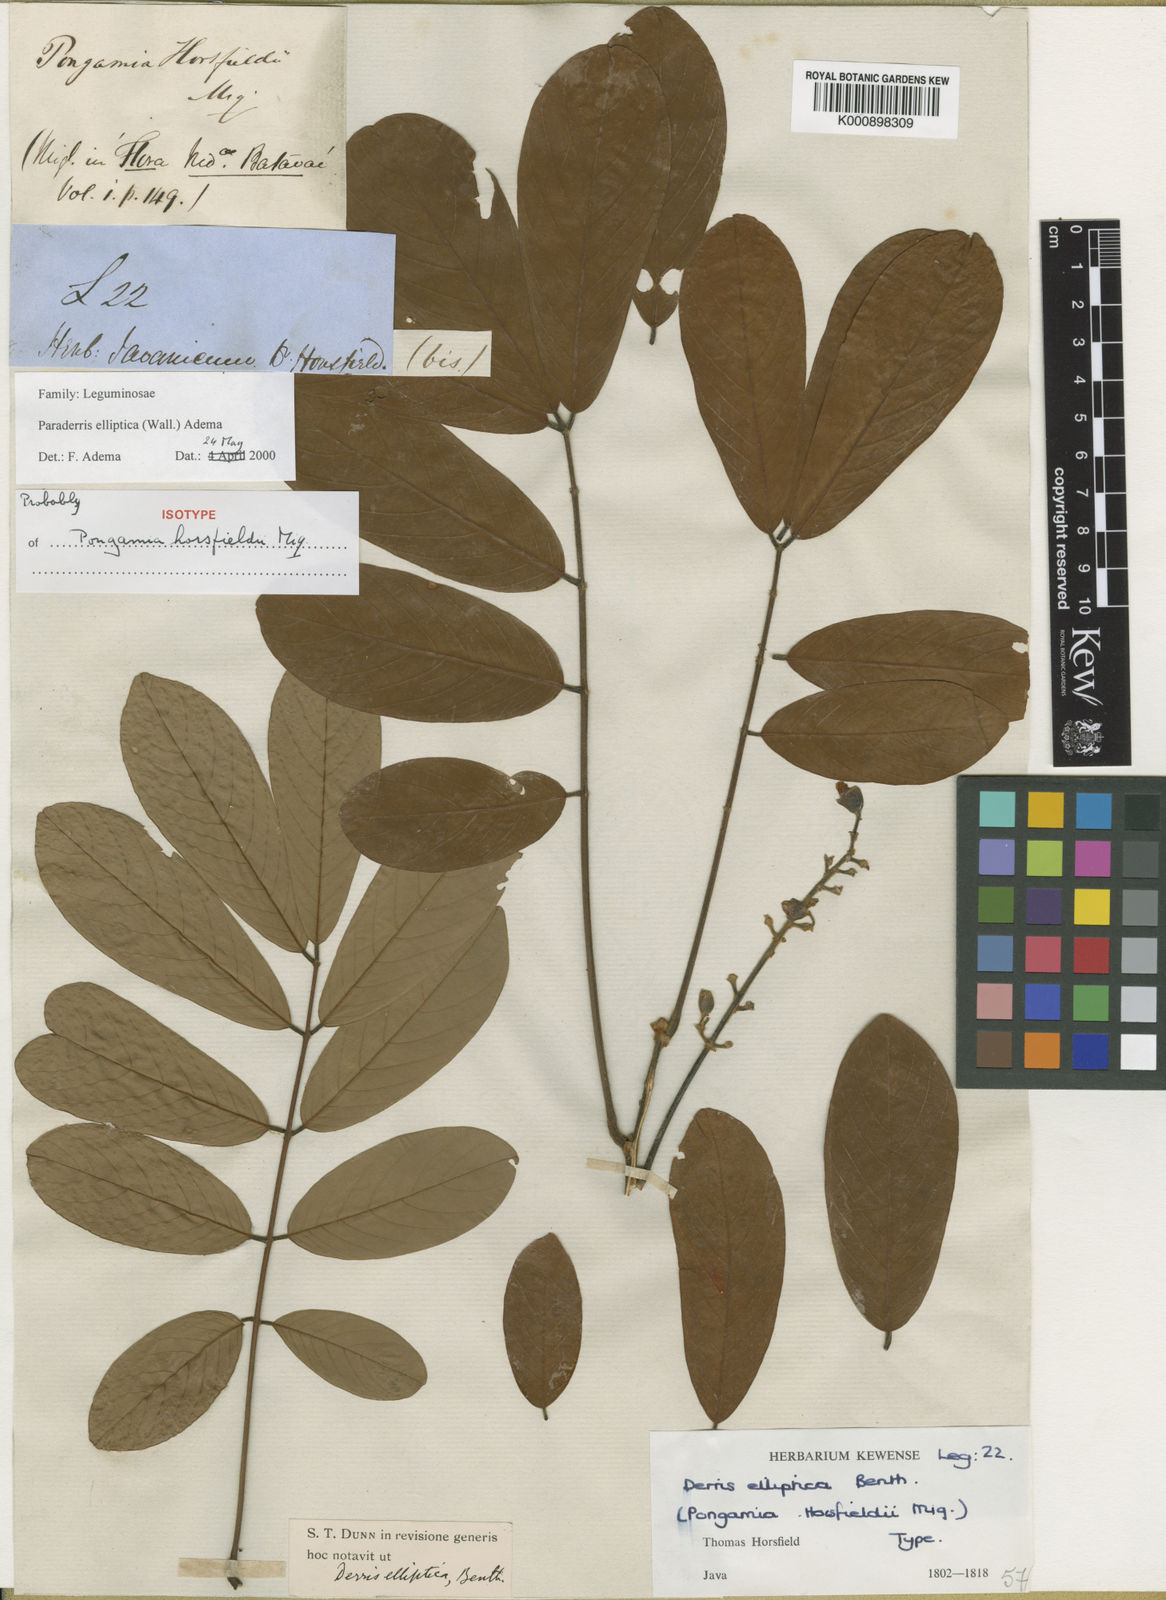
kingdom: Plantae
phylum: Tracheophyta
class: Magnoliopsida
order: Fabales
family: Fabaceae
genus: Derris
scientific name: Derris elliptica
